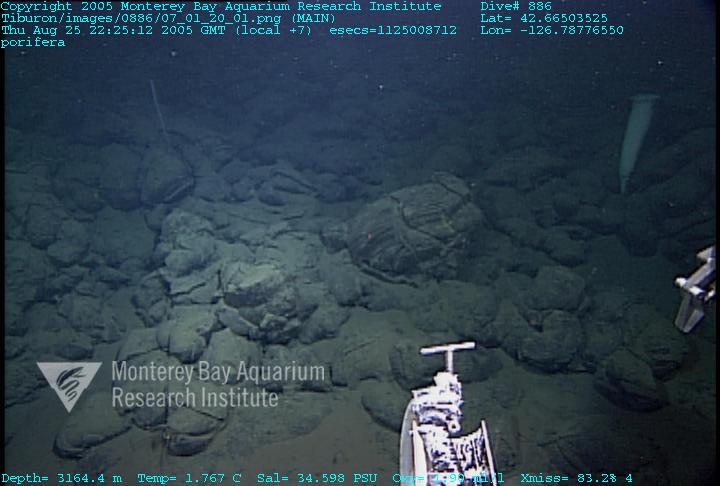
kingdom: Animalia
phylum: Porifera
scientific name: Porifera
